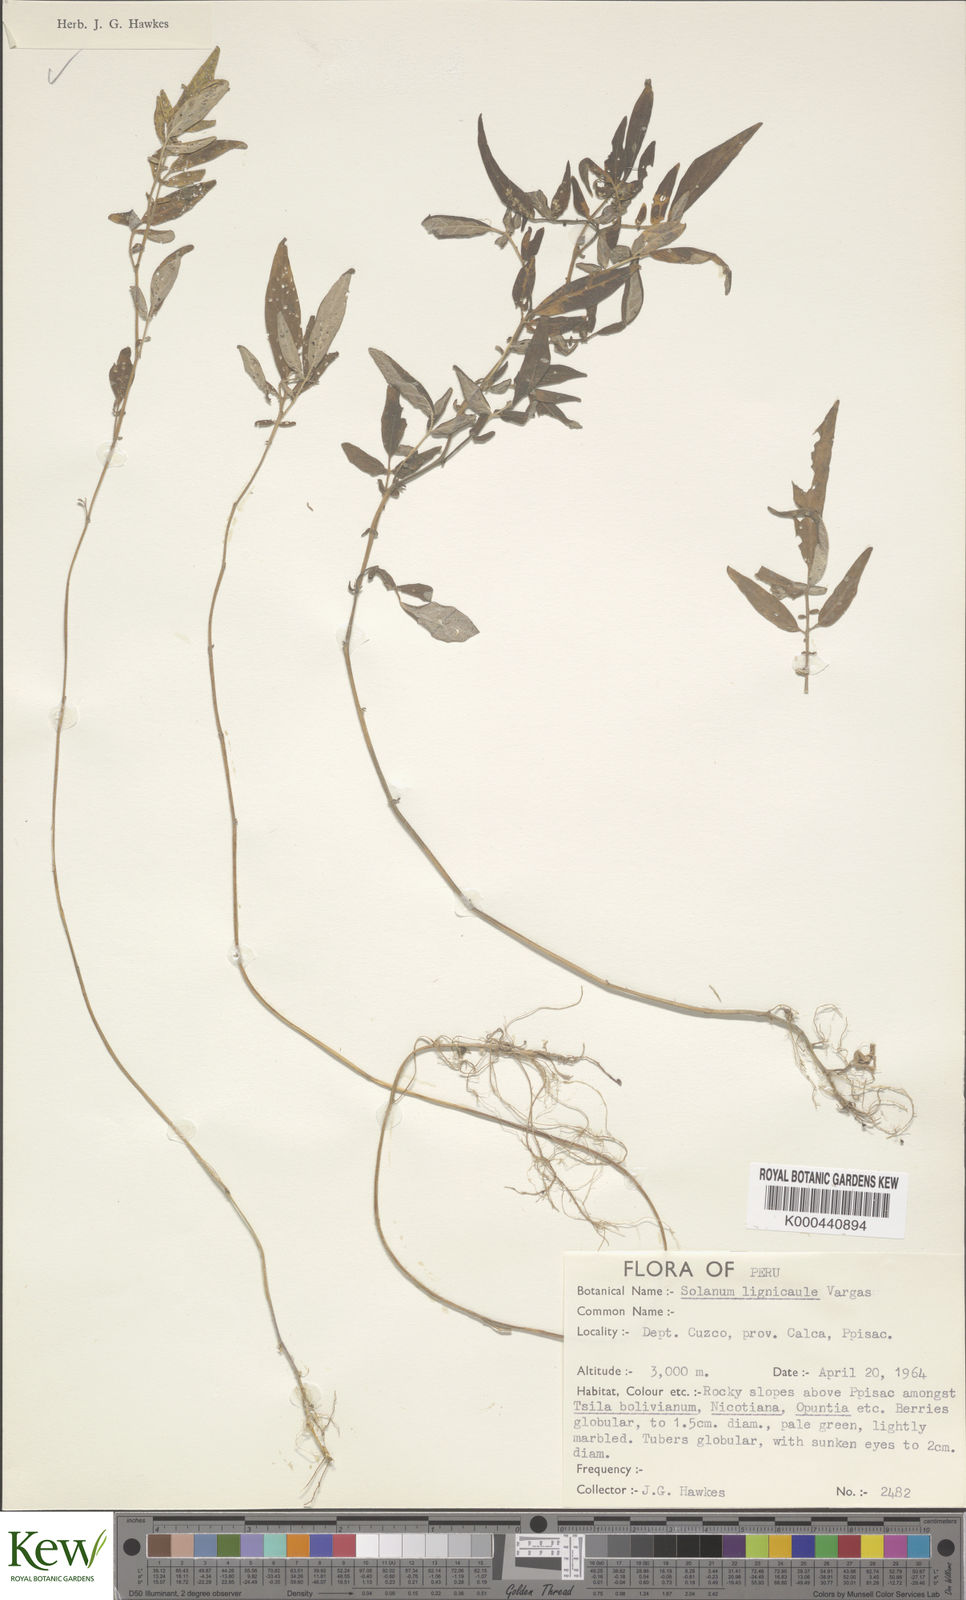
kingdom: Plantae
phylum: Tracheophyta
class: Magnoliopsida
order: Solanales
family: Solanaceae
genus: Solanum
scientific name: Solanum lignicaule
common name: Fox potato
